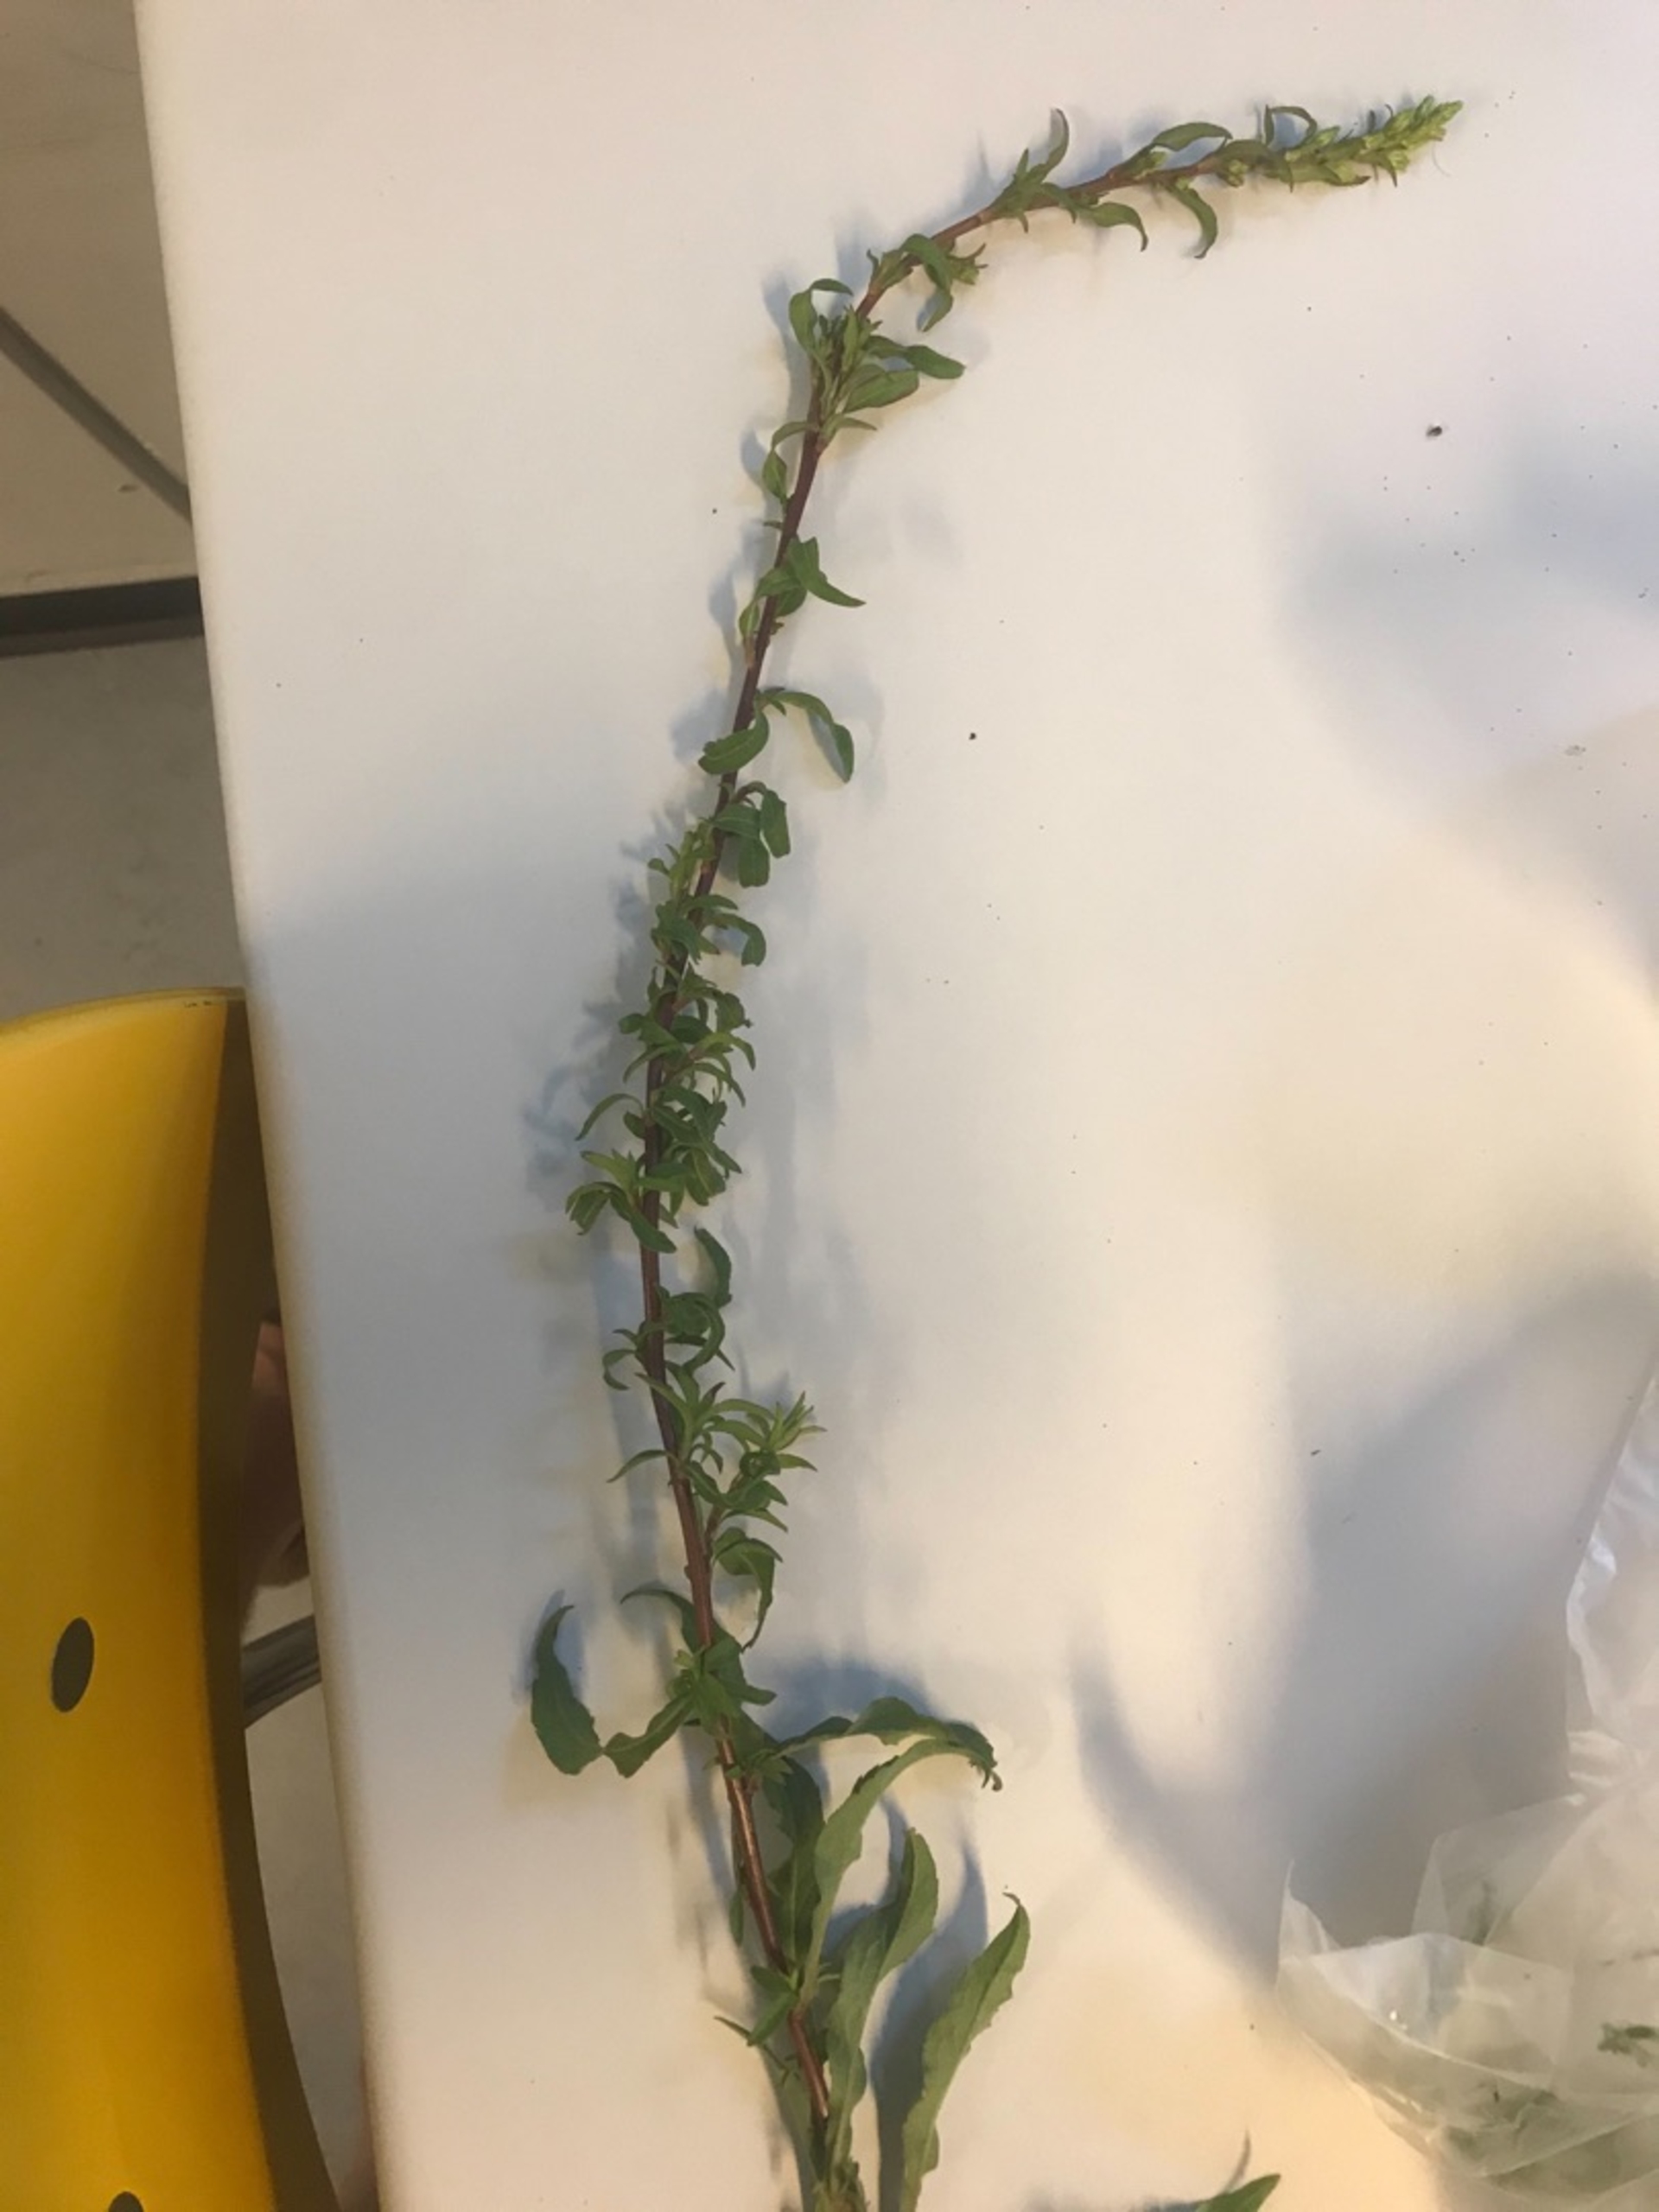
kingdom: Plantae
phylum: Tracheophyta
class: Magnoliopsida
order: Asterales
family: Asteraceae
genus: Solidago
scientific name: Solidago virgaurea
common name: Almindelig gyldenris
